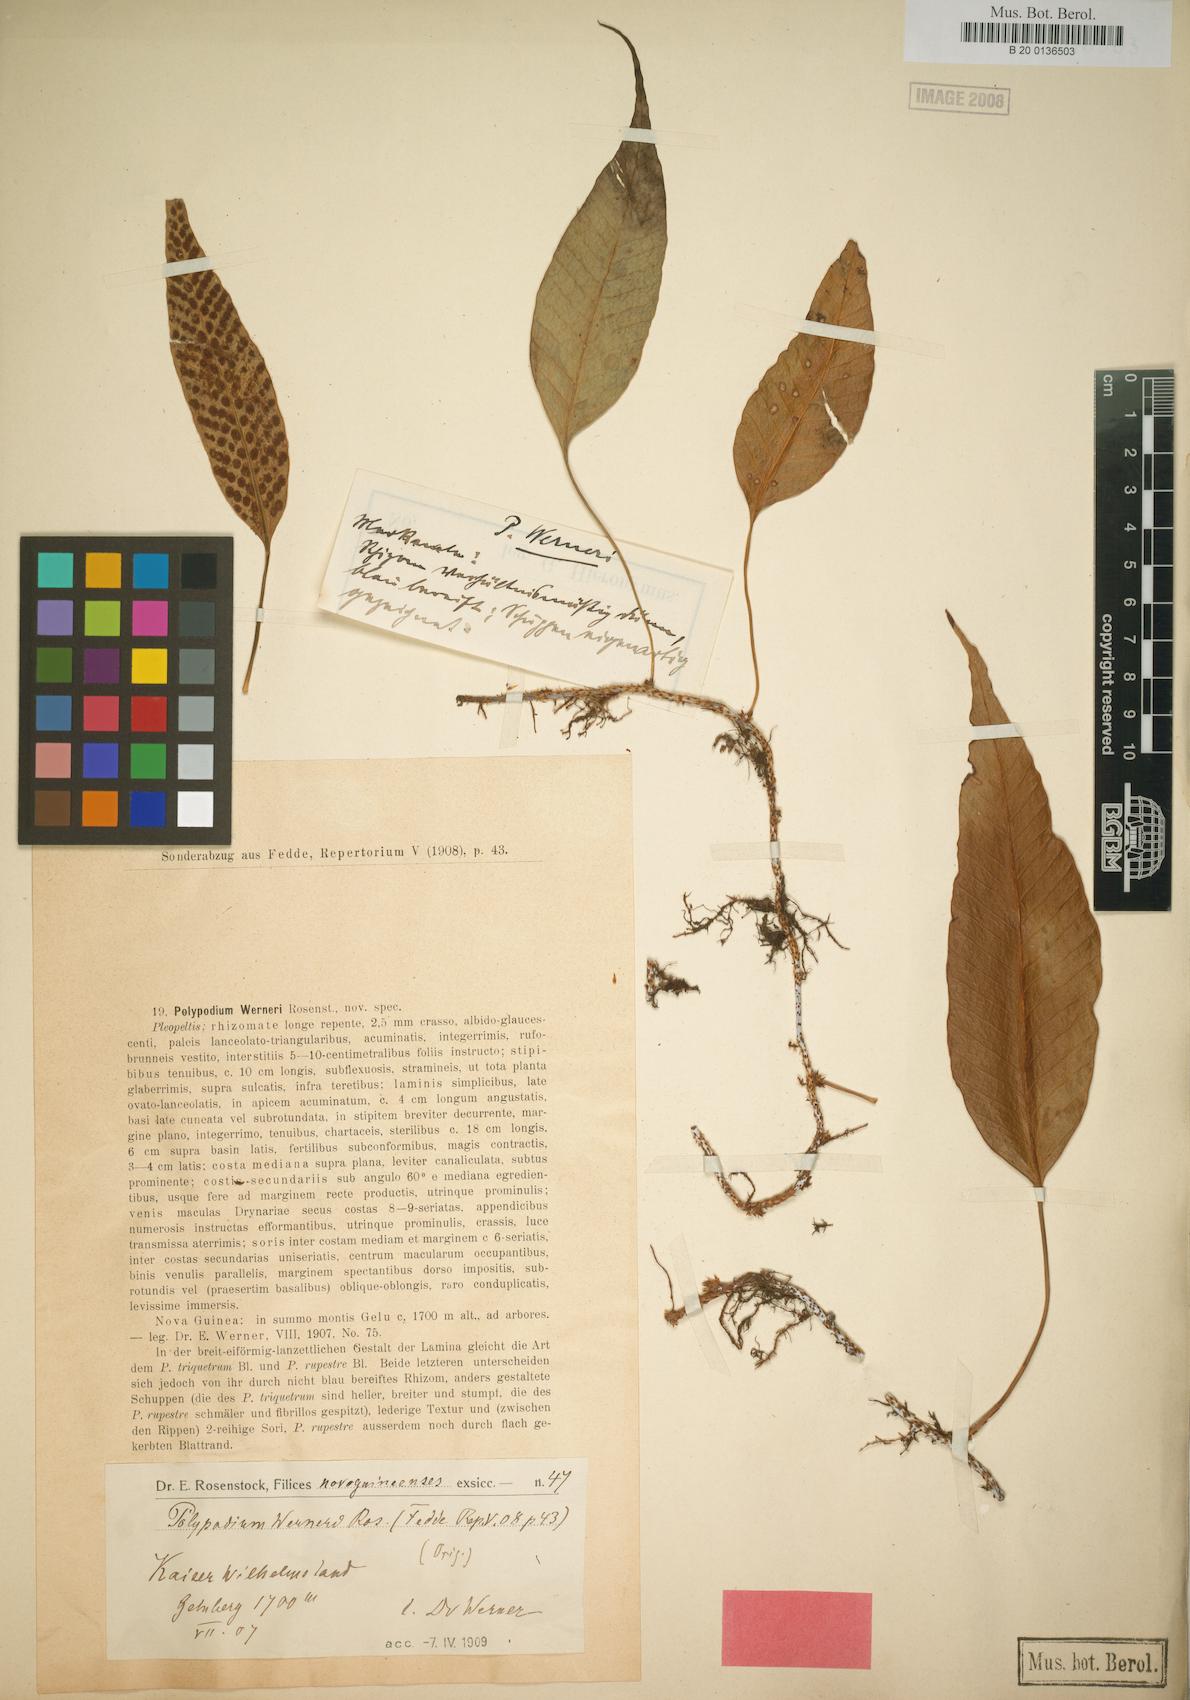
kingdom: Plantae
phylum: Tracheophyta
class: Polypodiopsida
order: Polypodiales
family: Polypodiaceae
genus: Selliguea
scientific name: Selliguea plantaginea
